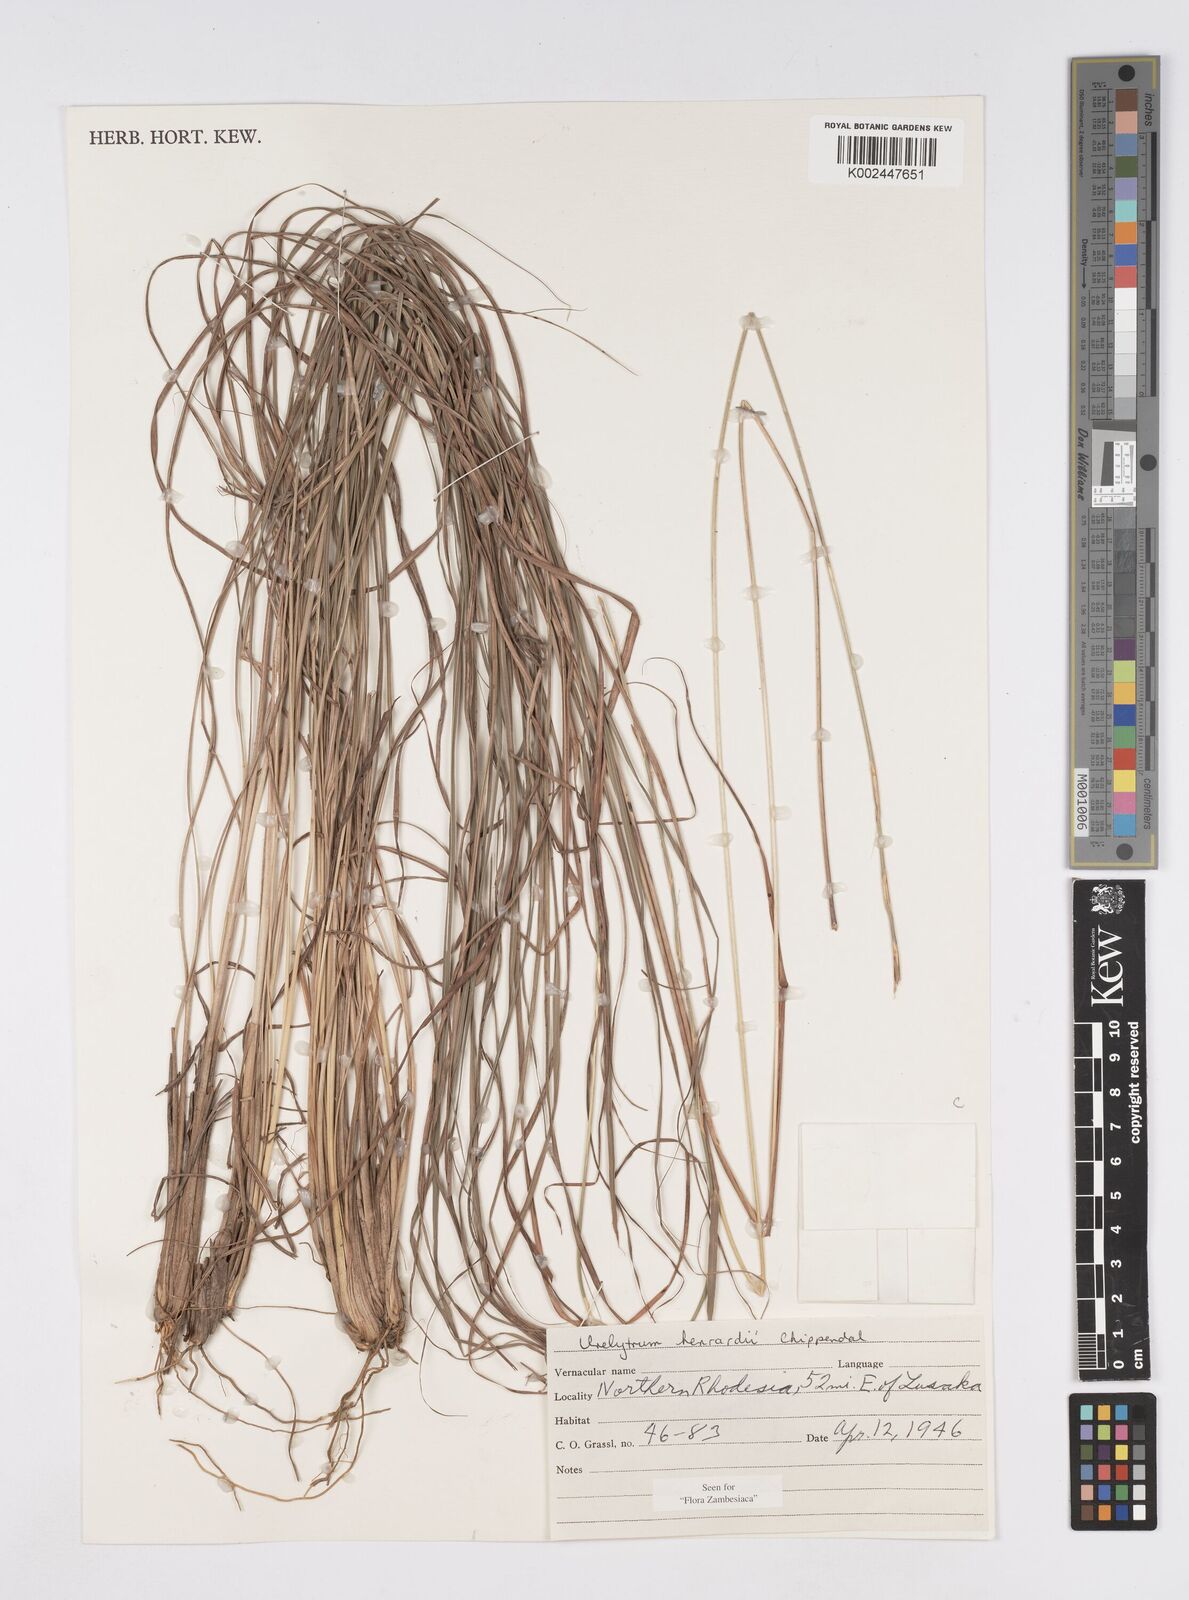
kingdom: Plantae
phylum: Tracheophyta
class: Liliopsida
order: Poales
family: Poaceae
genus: Urelytrum
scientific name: Urelytrum henrardii
